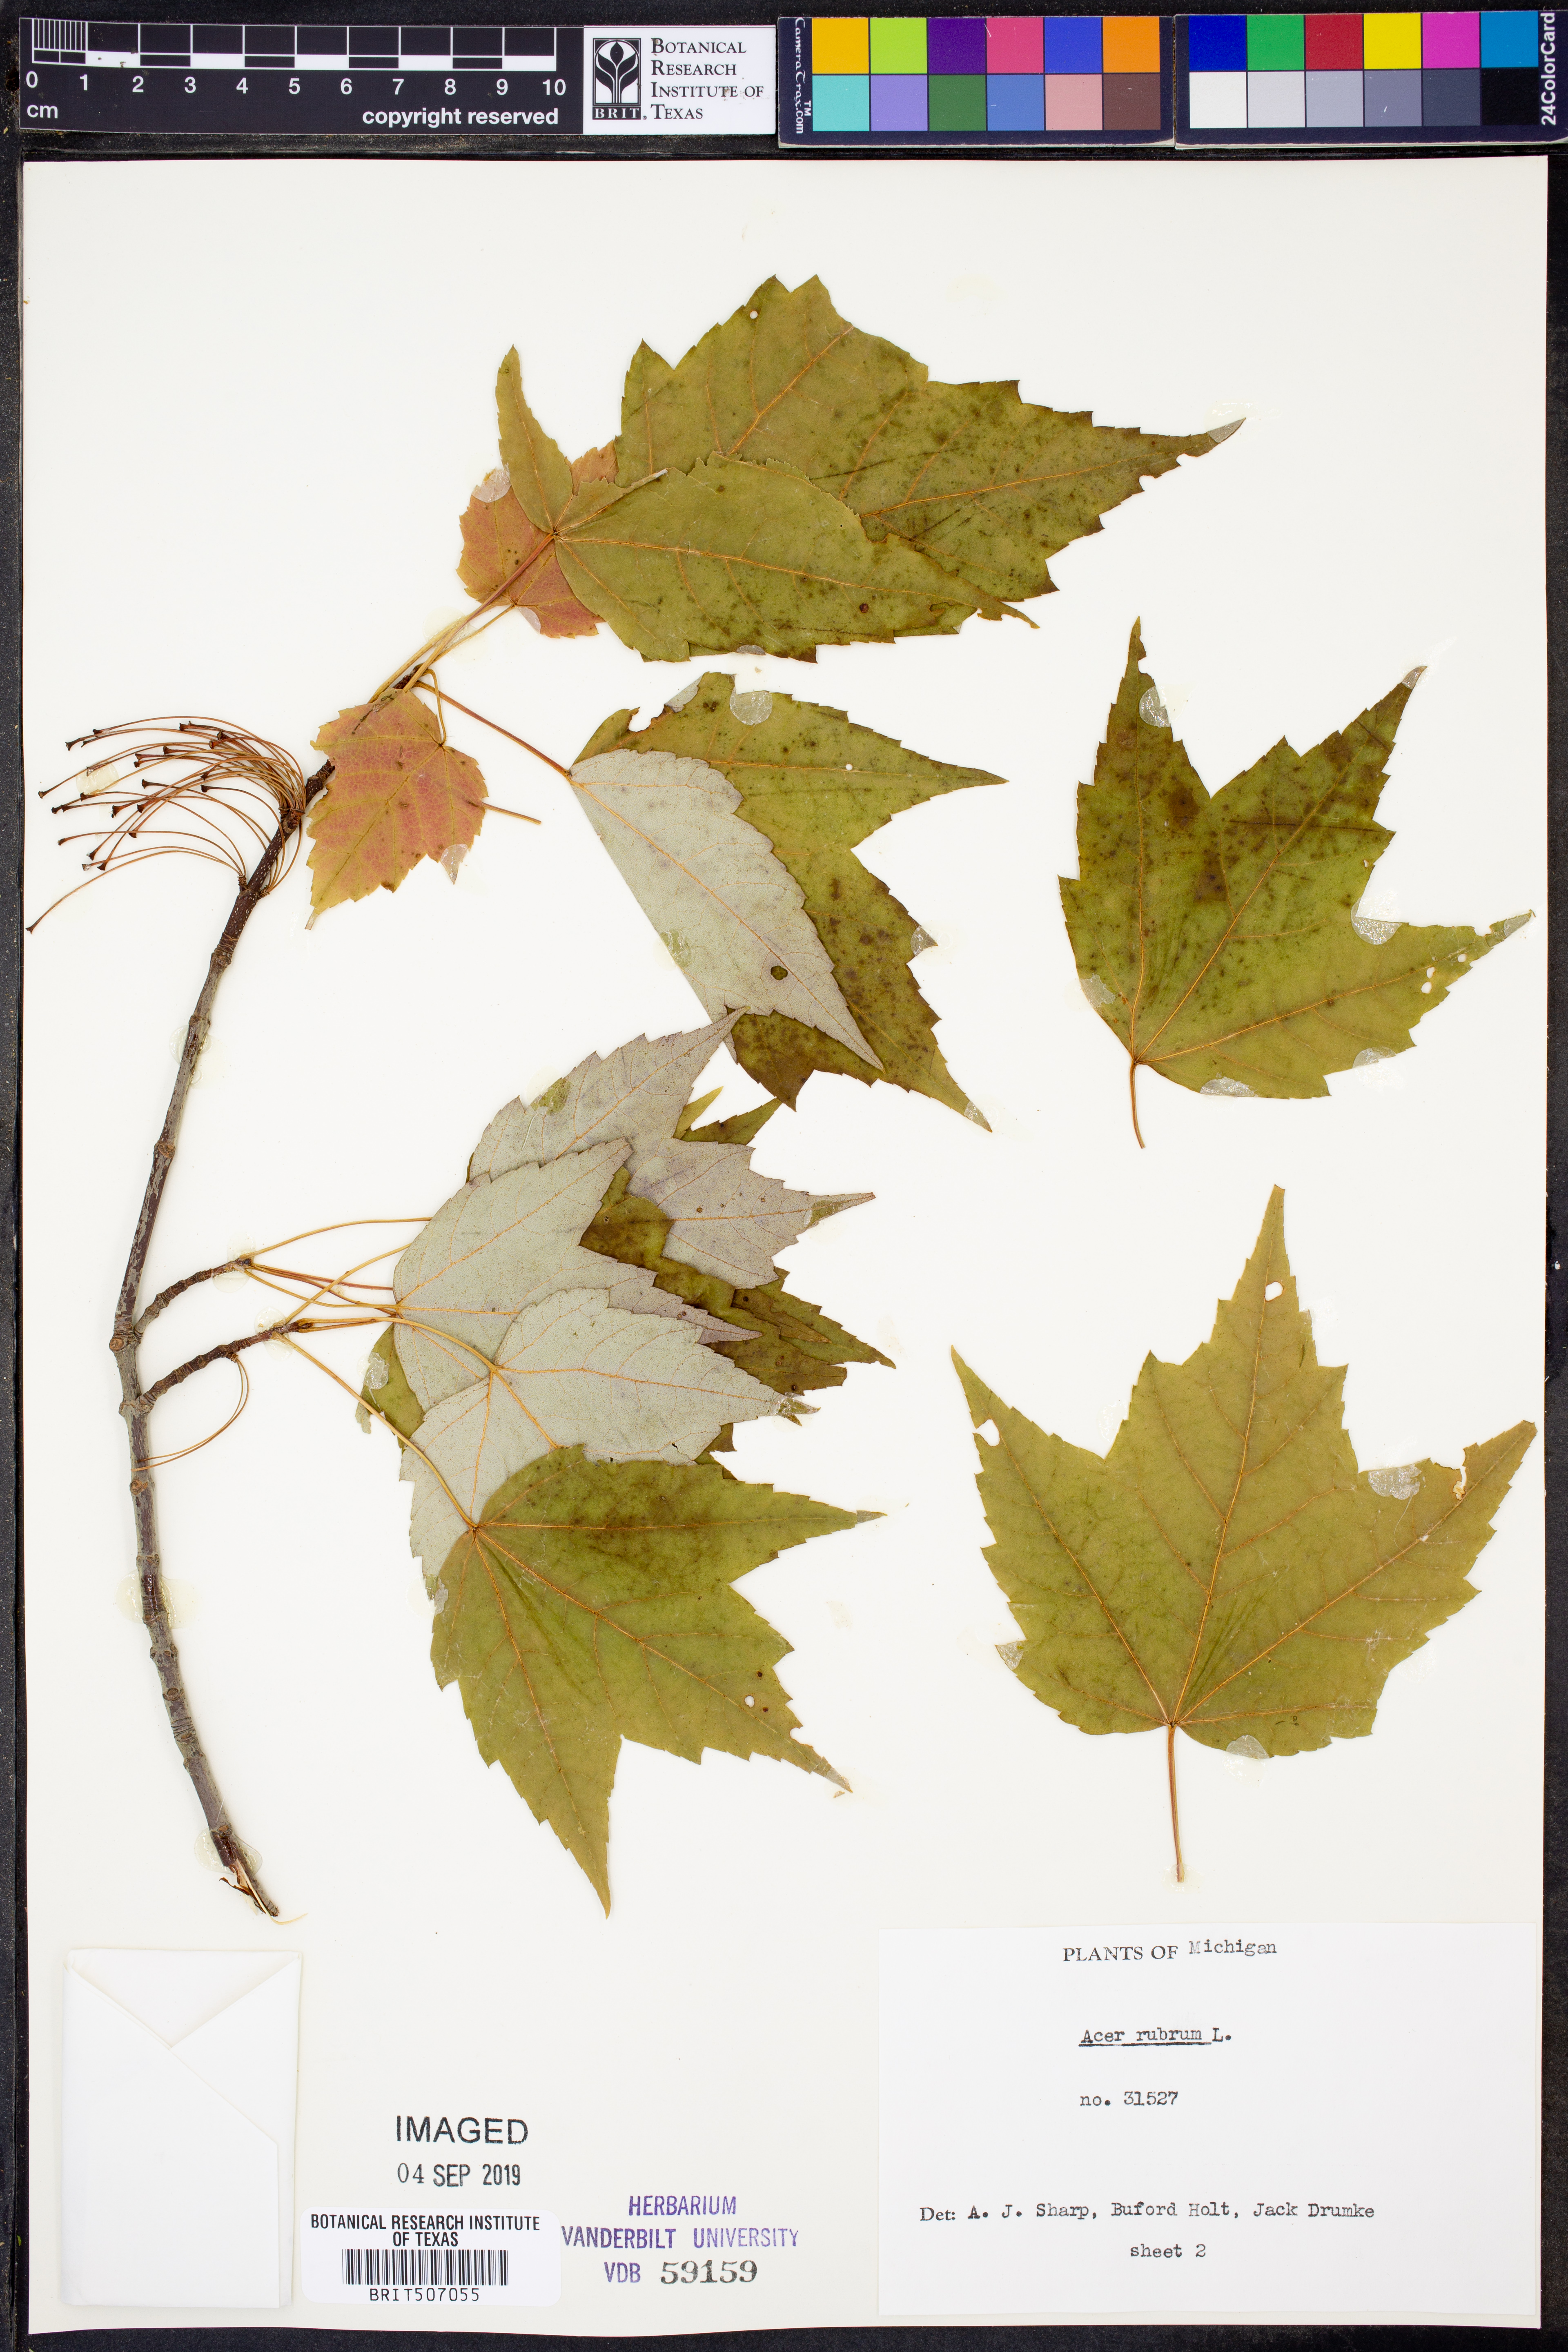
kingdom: Plantae
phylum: Tracheophyta
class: Magnoliopsida
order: Sapindales
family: Sapindaceae
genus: Acer
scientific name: Acer rubrum
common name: Red maple
